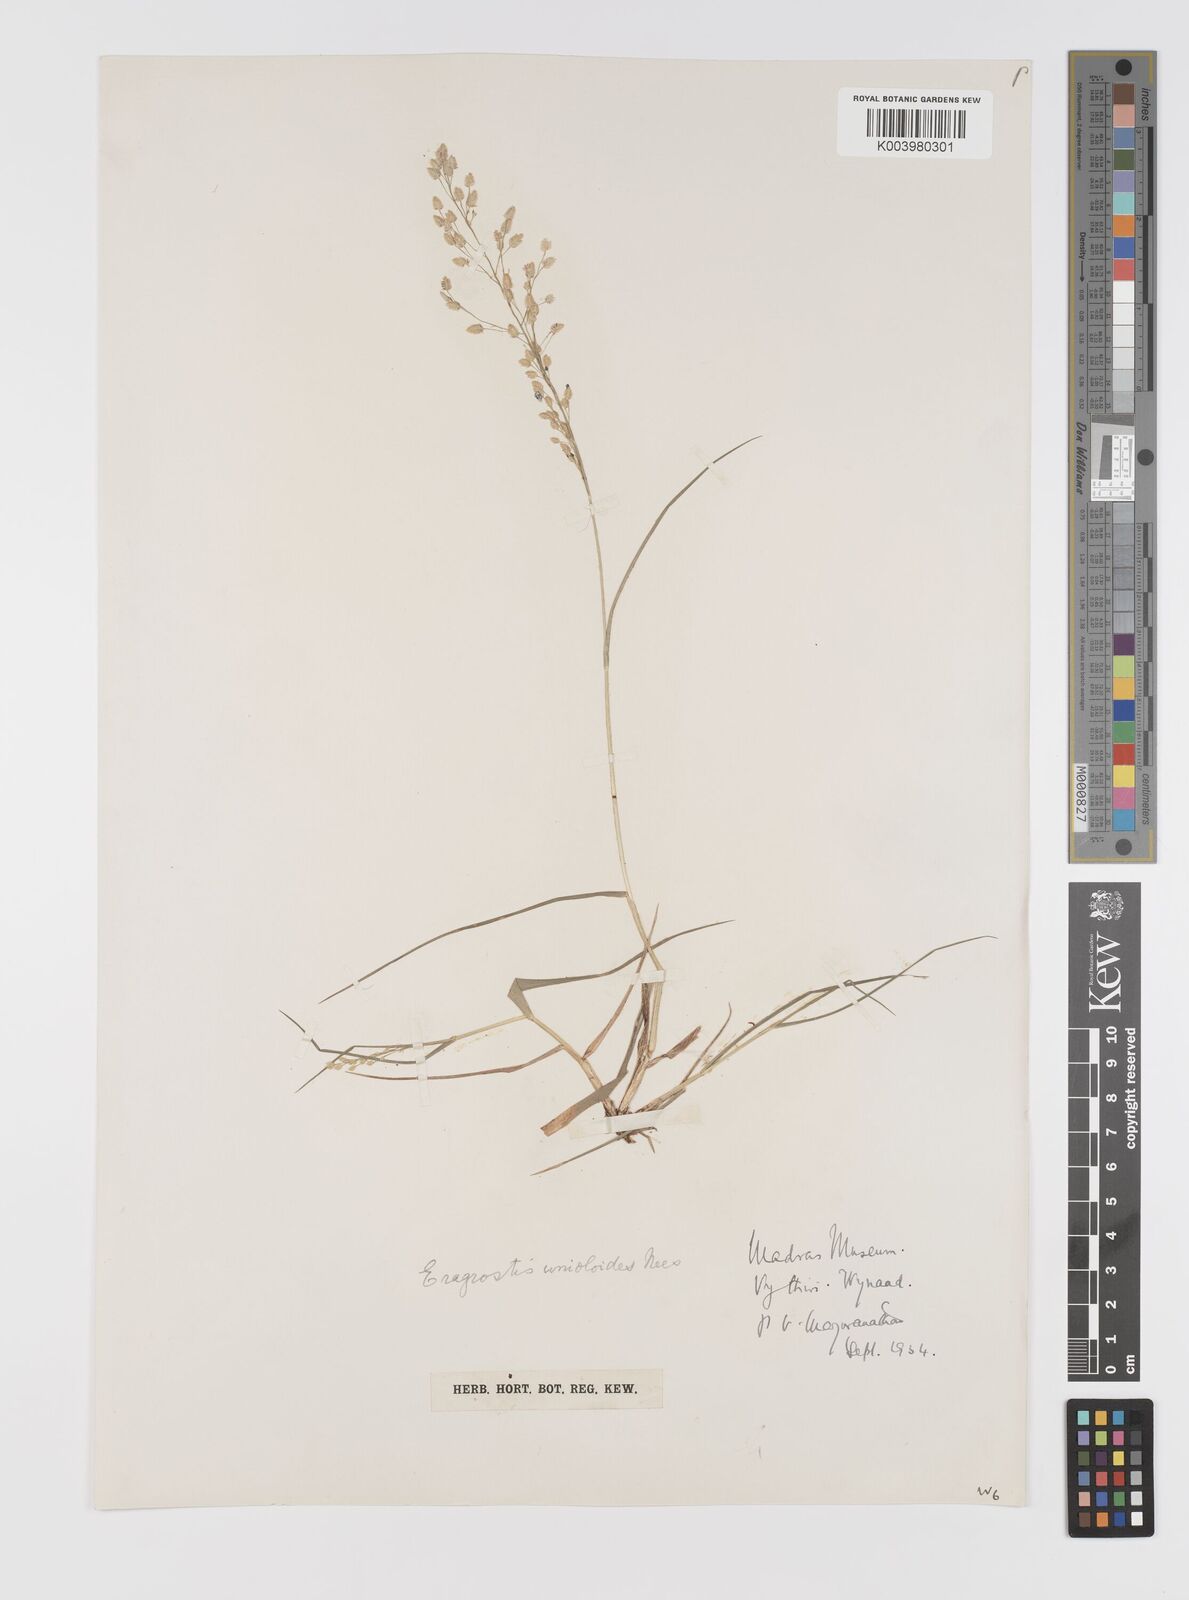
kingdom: Plantae
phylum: Tracheophyta
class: Liliopsida
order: Poales
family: Poaceae
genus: Eragrostis
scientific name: Eragrostis unioloides
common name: Chinese lovegrass
